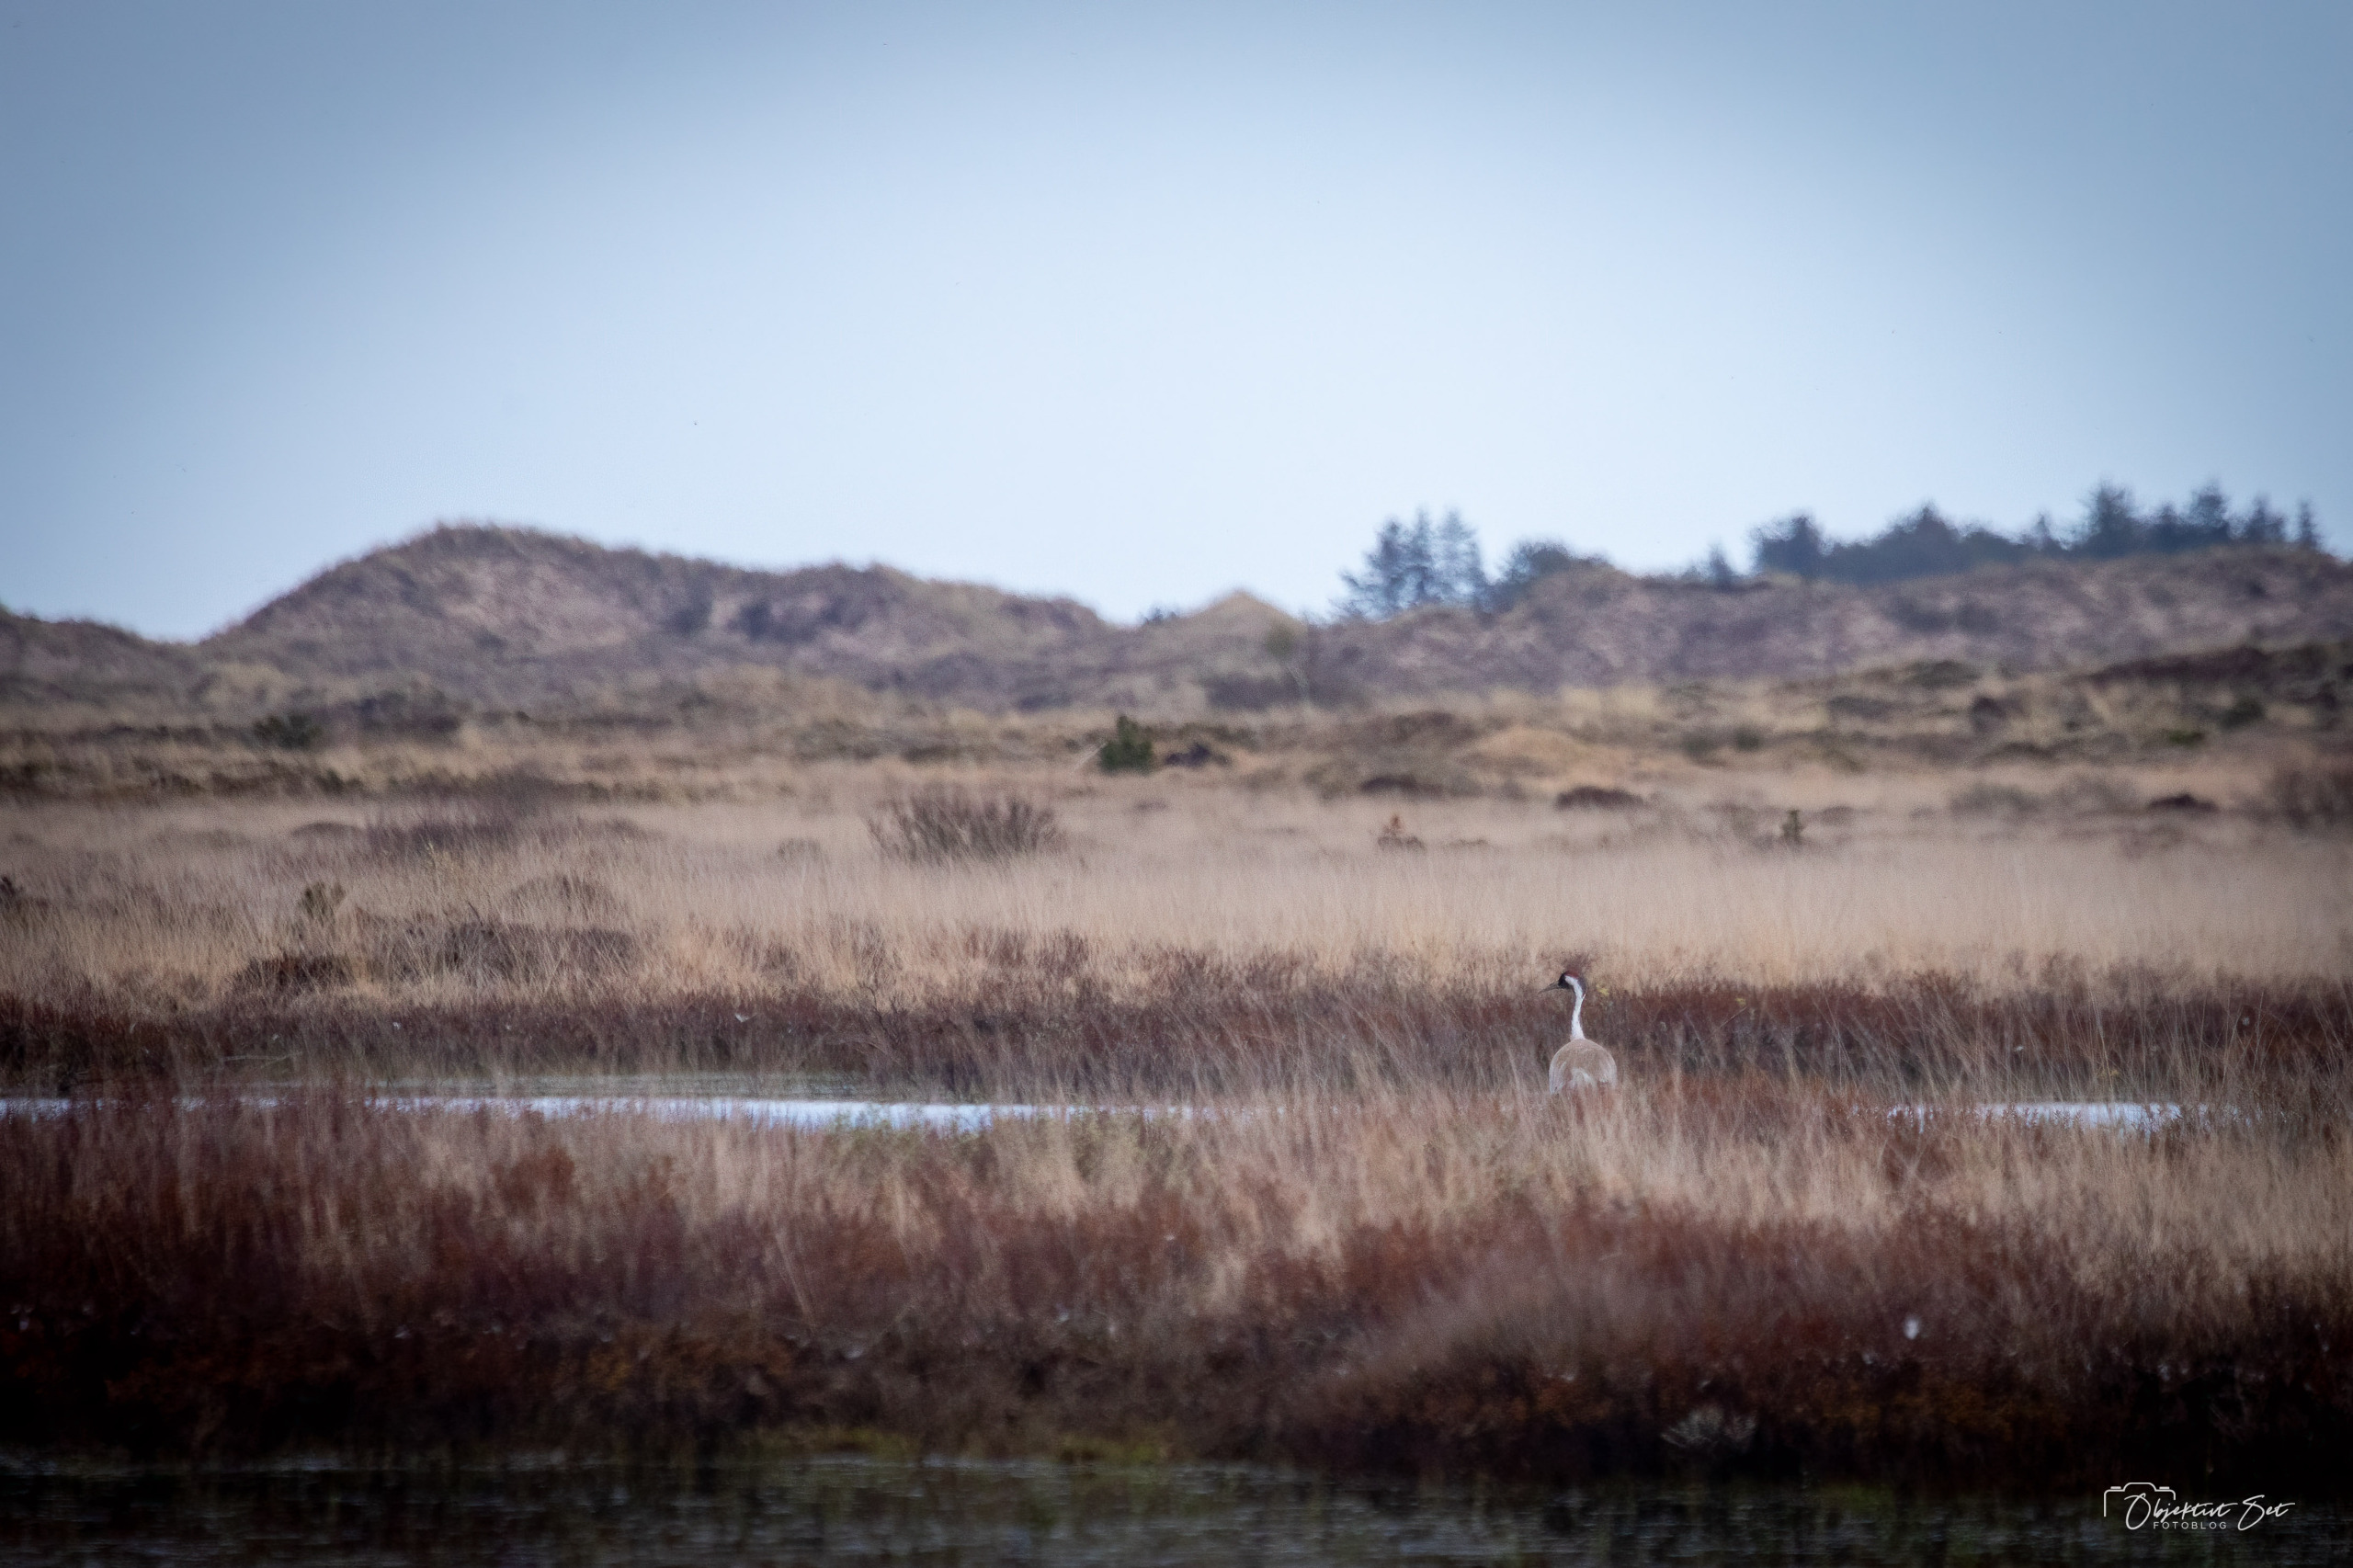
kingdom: Animalia
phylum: Chordata
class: Aves
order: Gruiformes
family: Gruidae
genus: Grus
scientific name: Grus grus
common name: Trane
